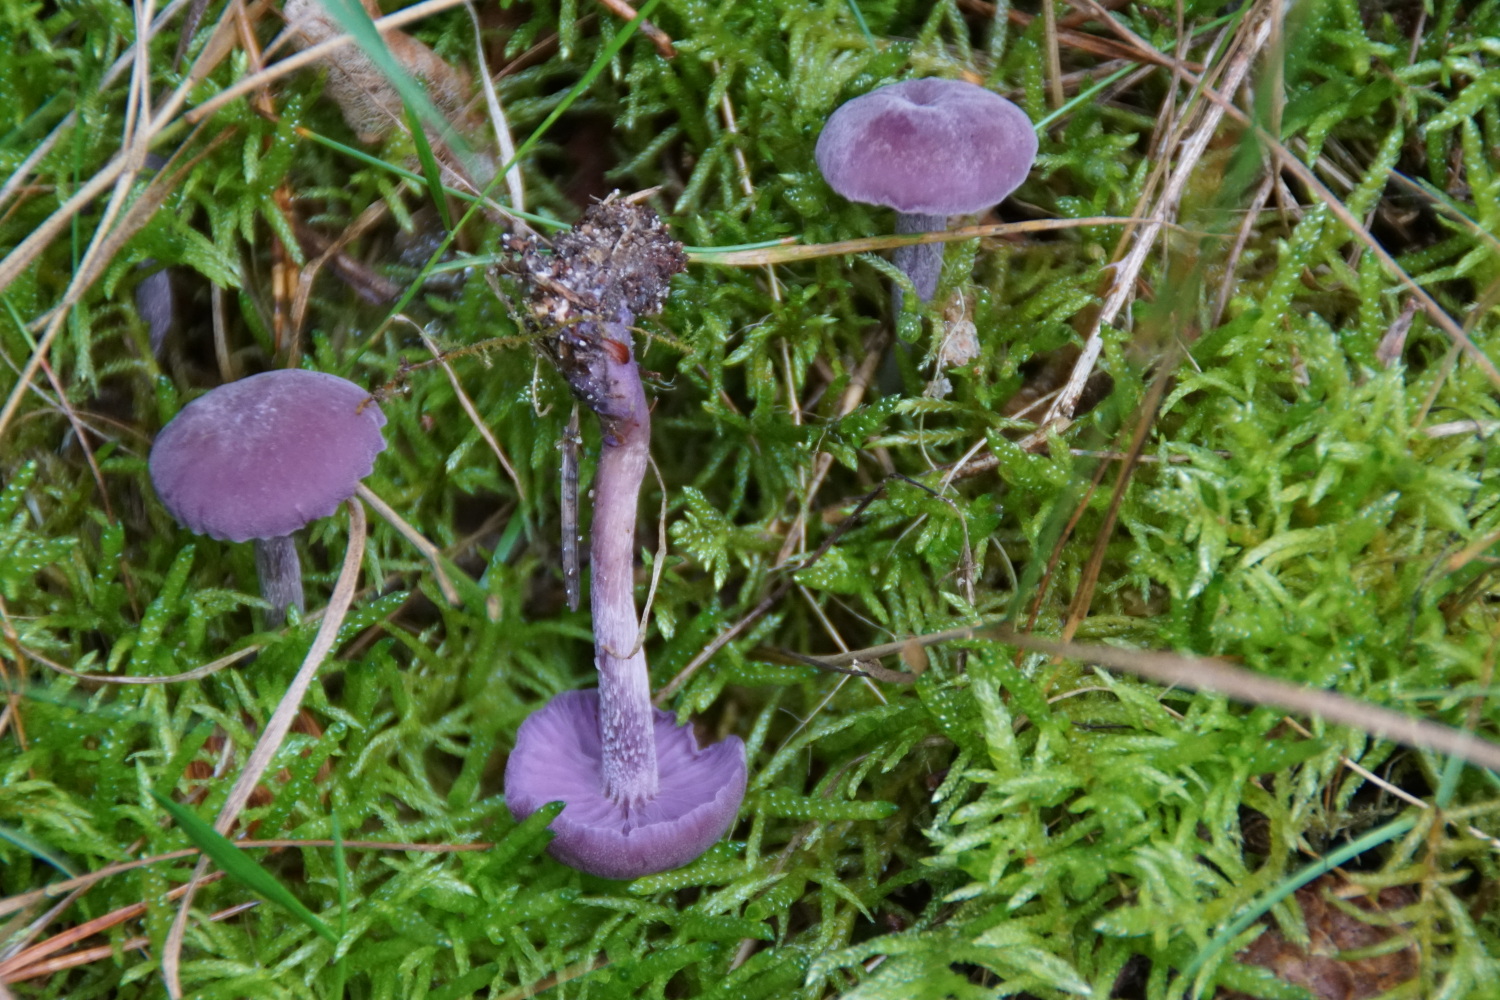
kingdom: Fungi
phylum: Basidiomycota
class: Agaricomycetes
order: Agaricales
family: Hydnangiaceae
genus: Laccaria
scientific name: Laccaria amethystina
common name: violet ametysthat
